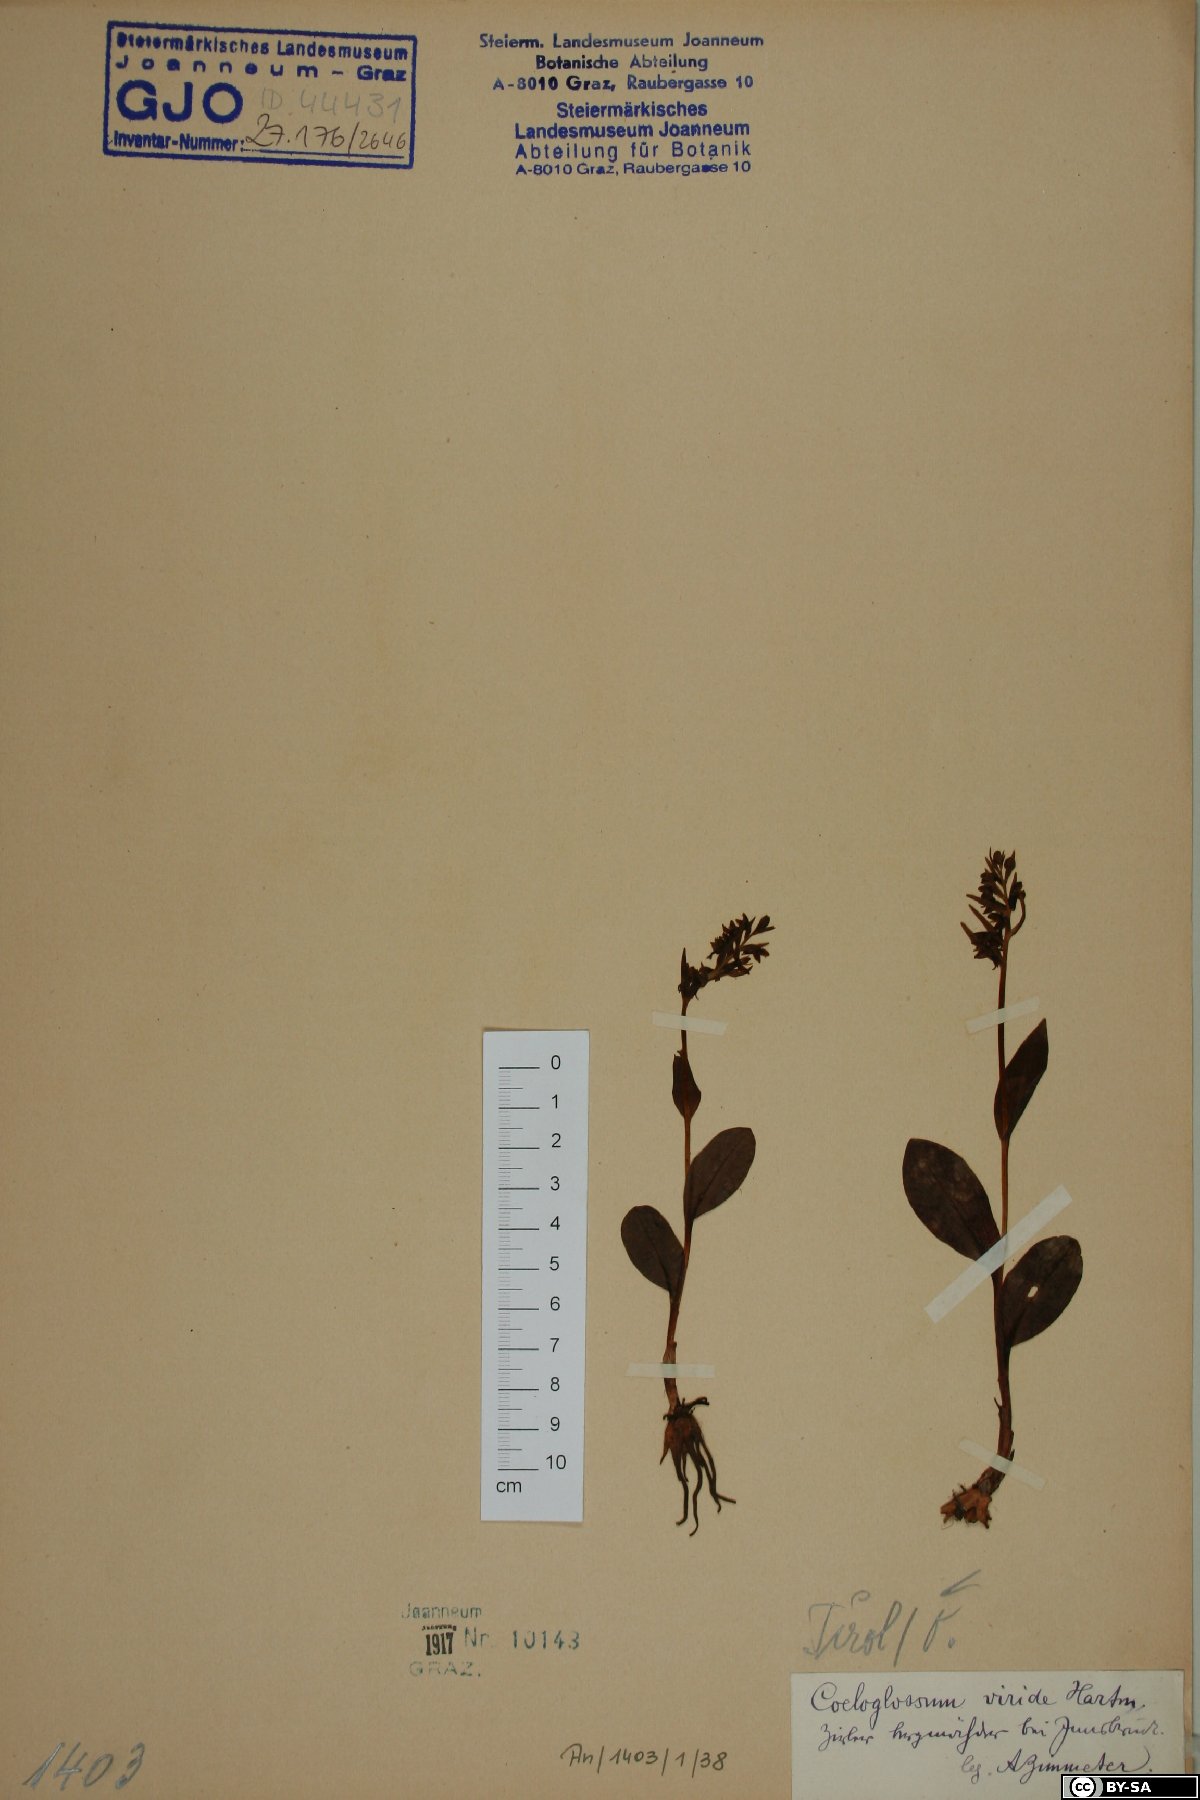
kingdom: Plantae
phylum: Tracheophyta
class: Liliopsida
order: Asparagales
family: Orchidaceae
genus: Dactylorhiza
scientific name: Dactylorhiza viridis
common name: Longbract frog orchid
